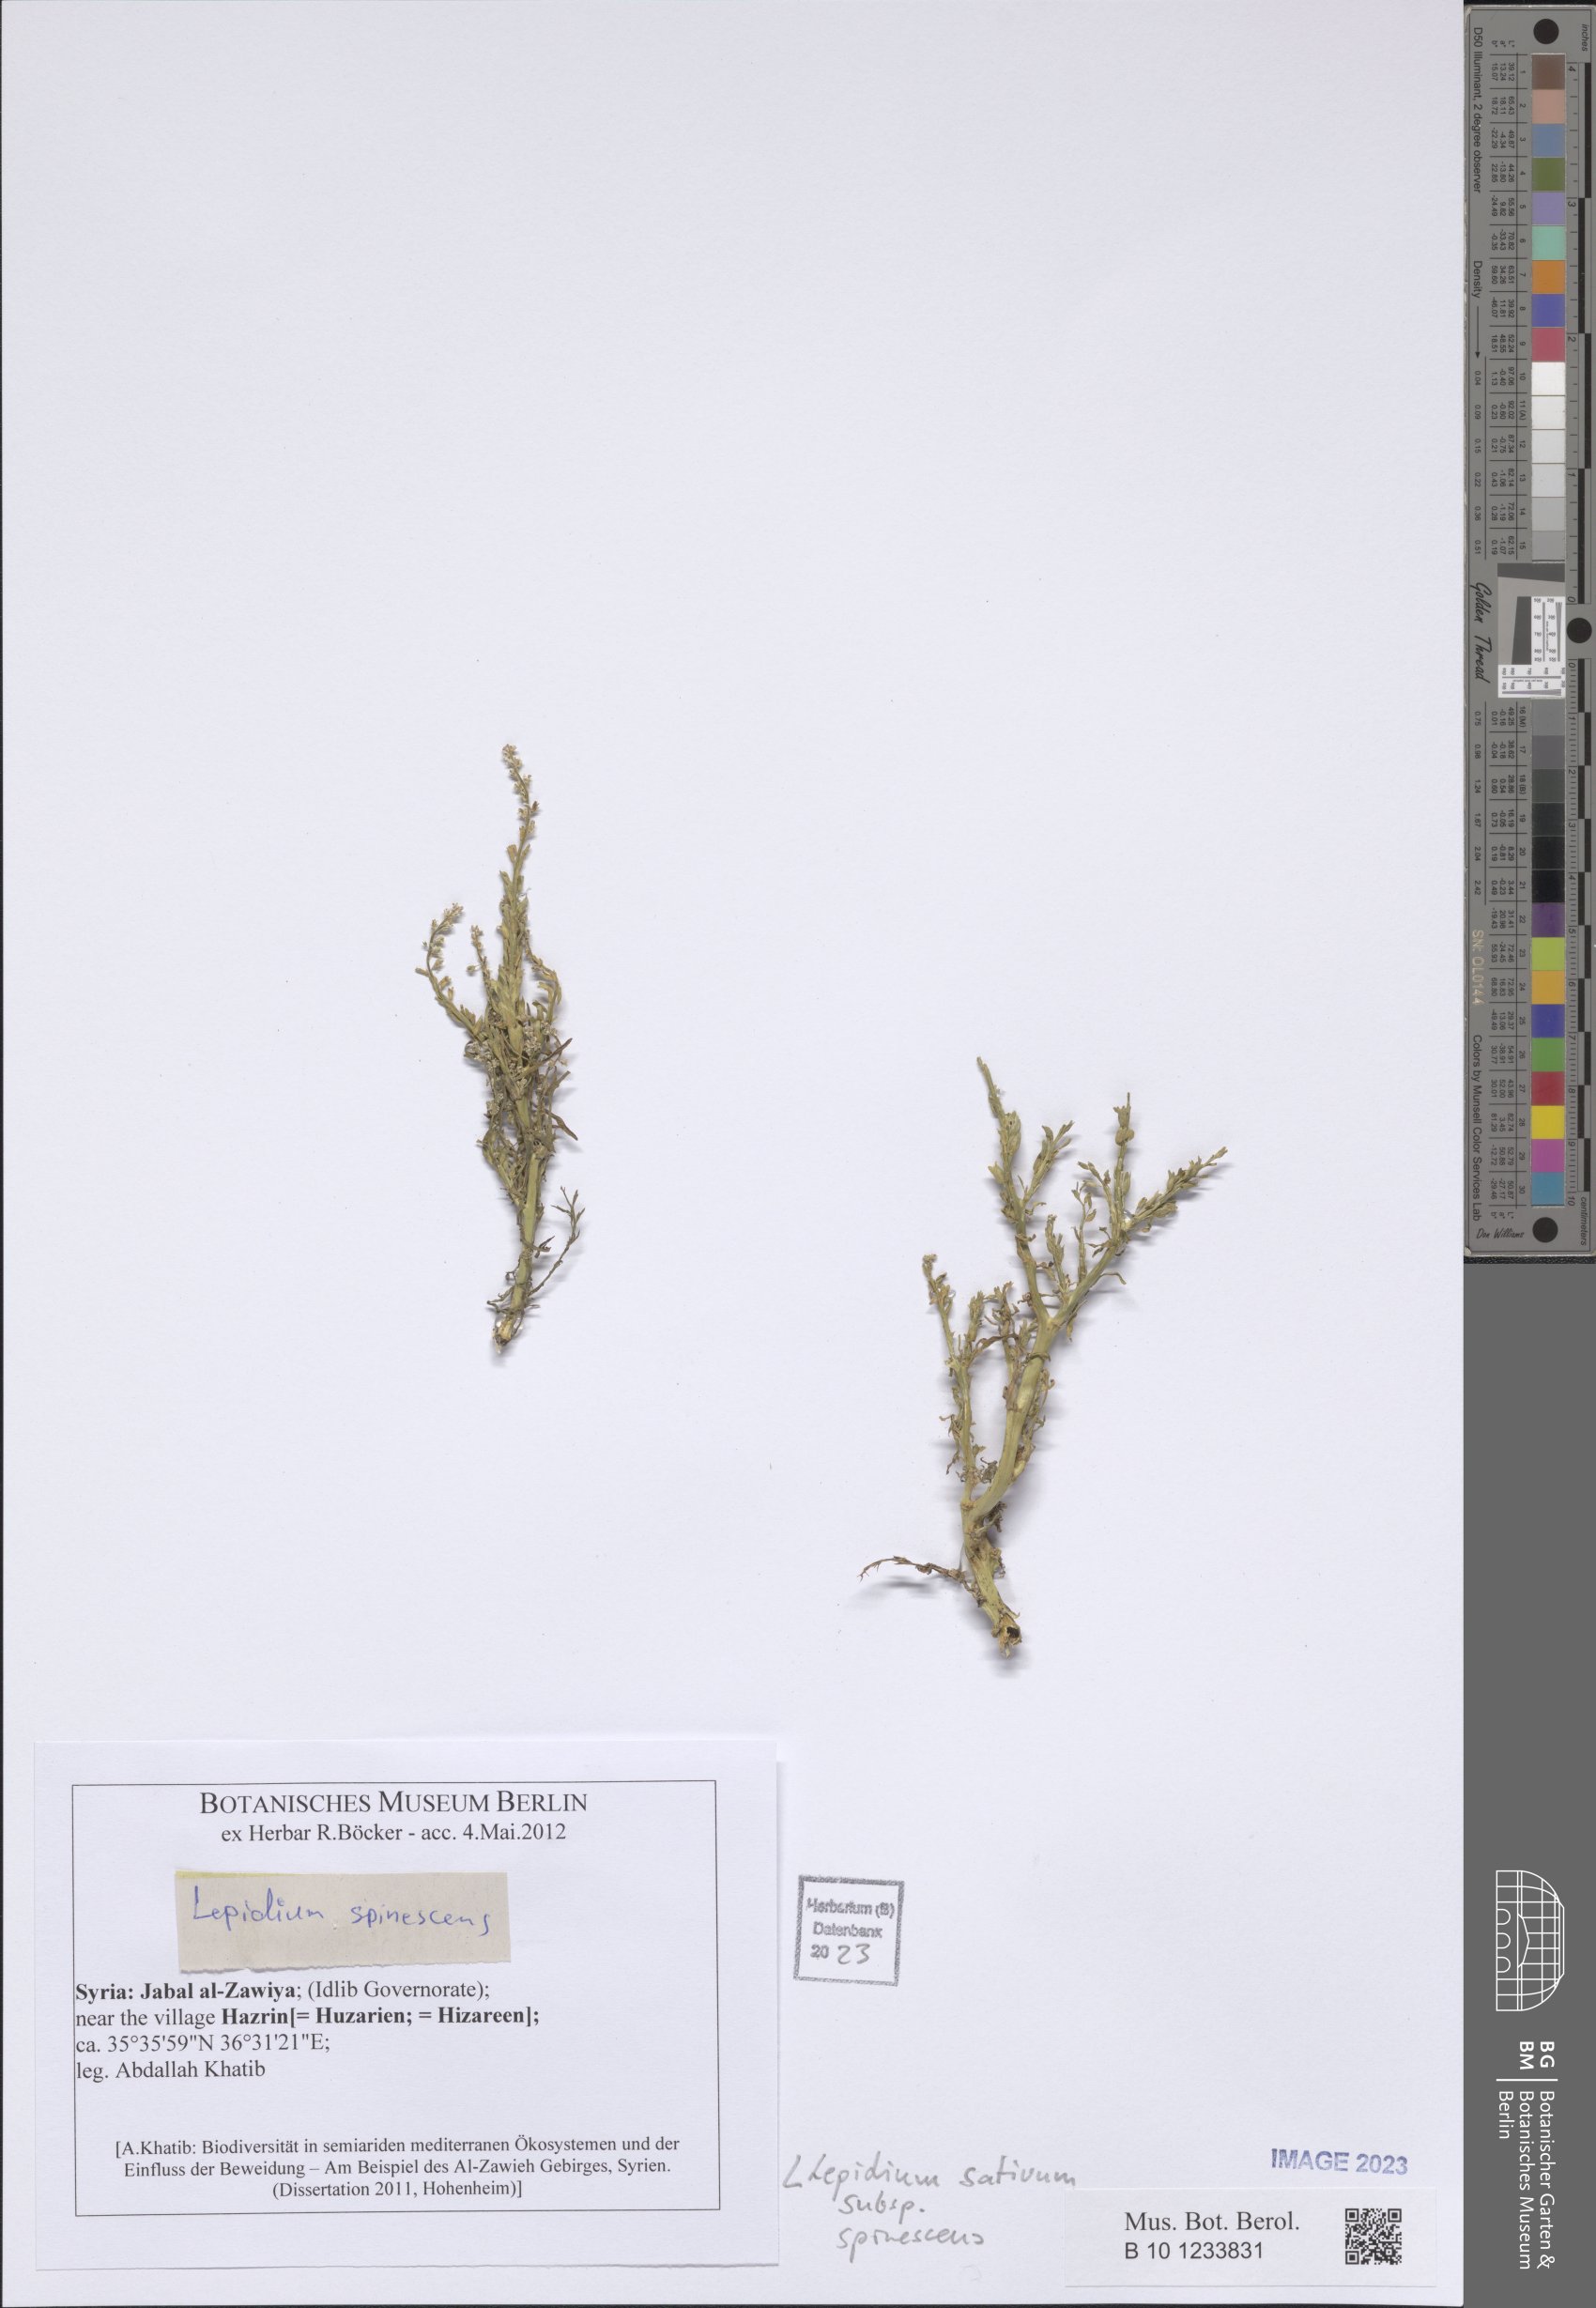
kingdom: Plantae
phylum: Tracheophyta
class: Magnoliopsida
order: Brassicales
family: Brassicaceae
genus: Lepidium
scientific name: Lepidium sativum
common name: Garden cress
